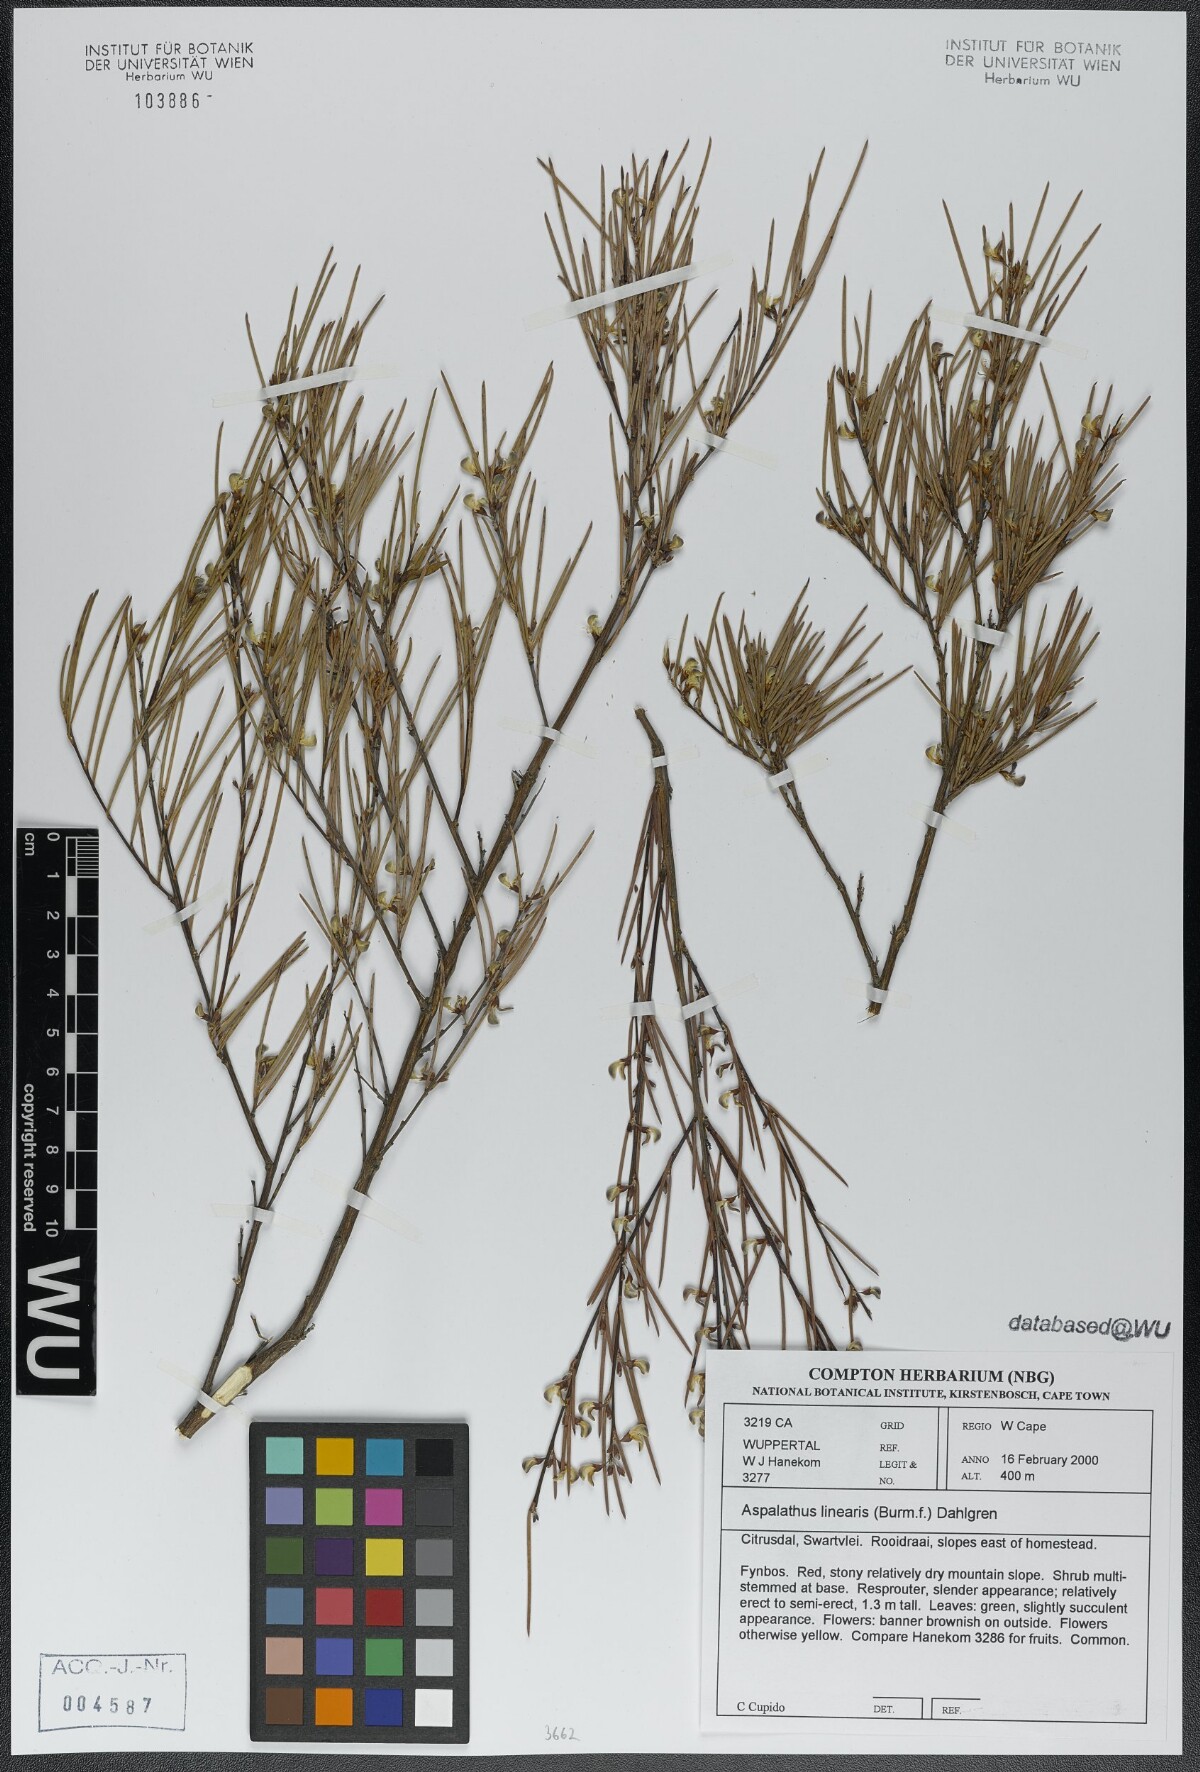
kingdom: Plantae
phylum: Tracheophyta
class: Magnoliopsida
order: Fabales
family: Fabaceae
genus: Aspalathus
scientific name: Aspalathus linearis
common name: Rooibos-tea
